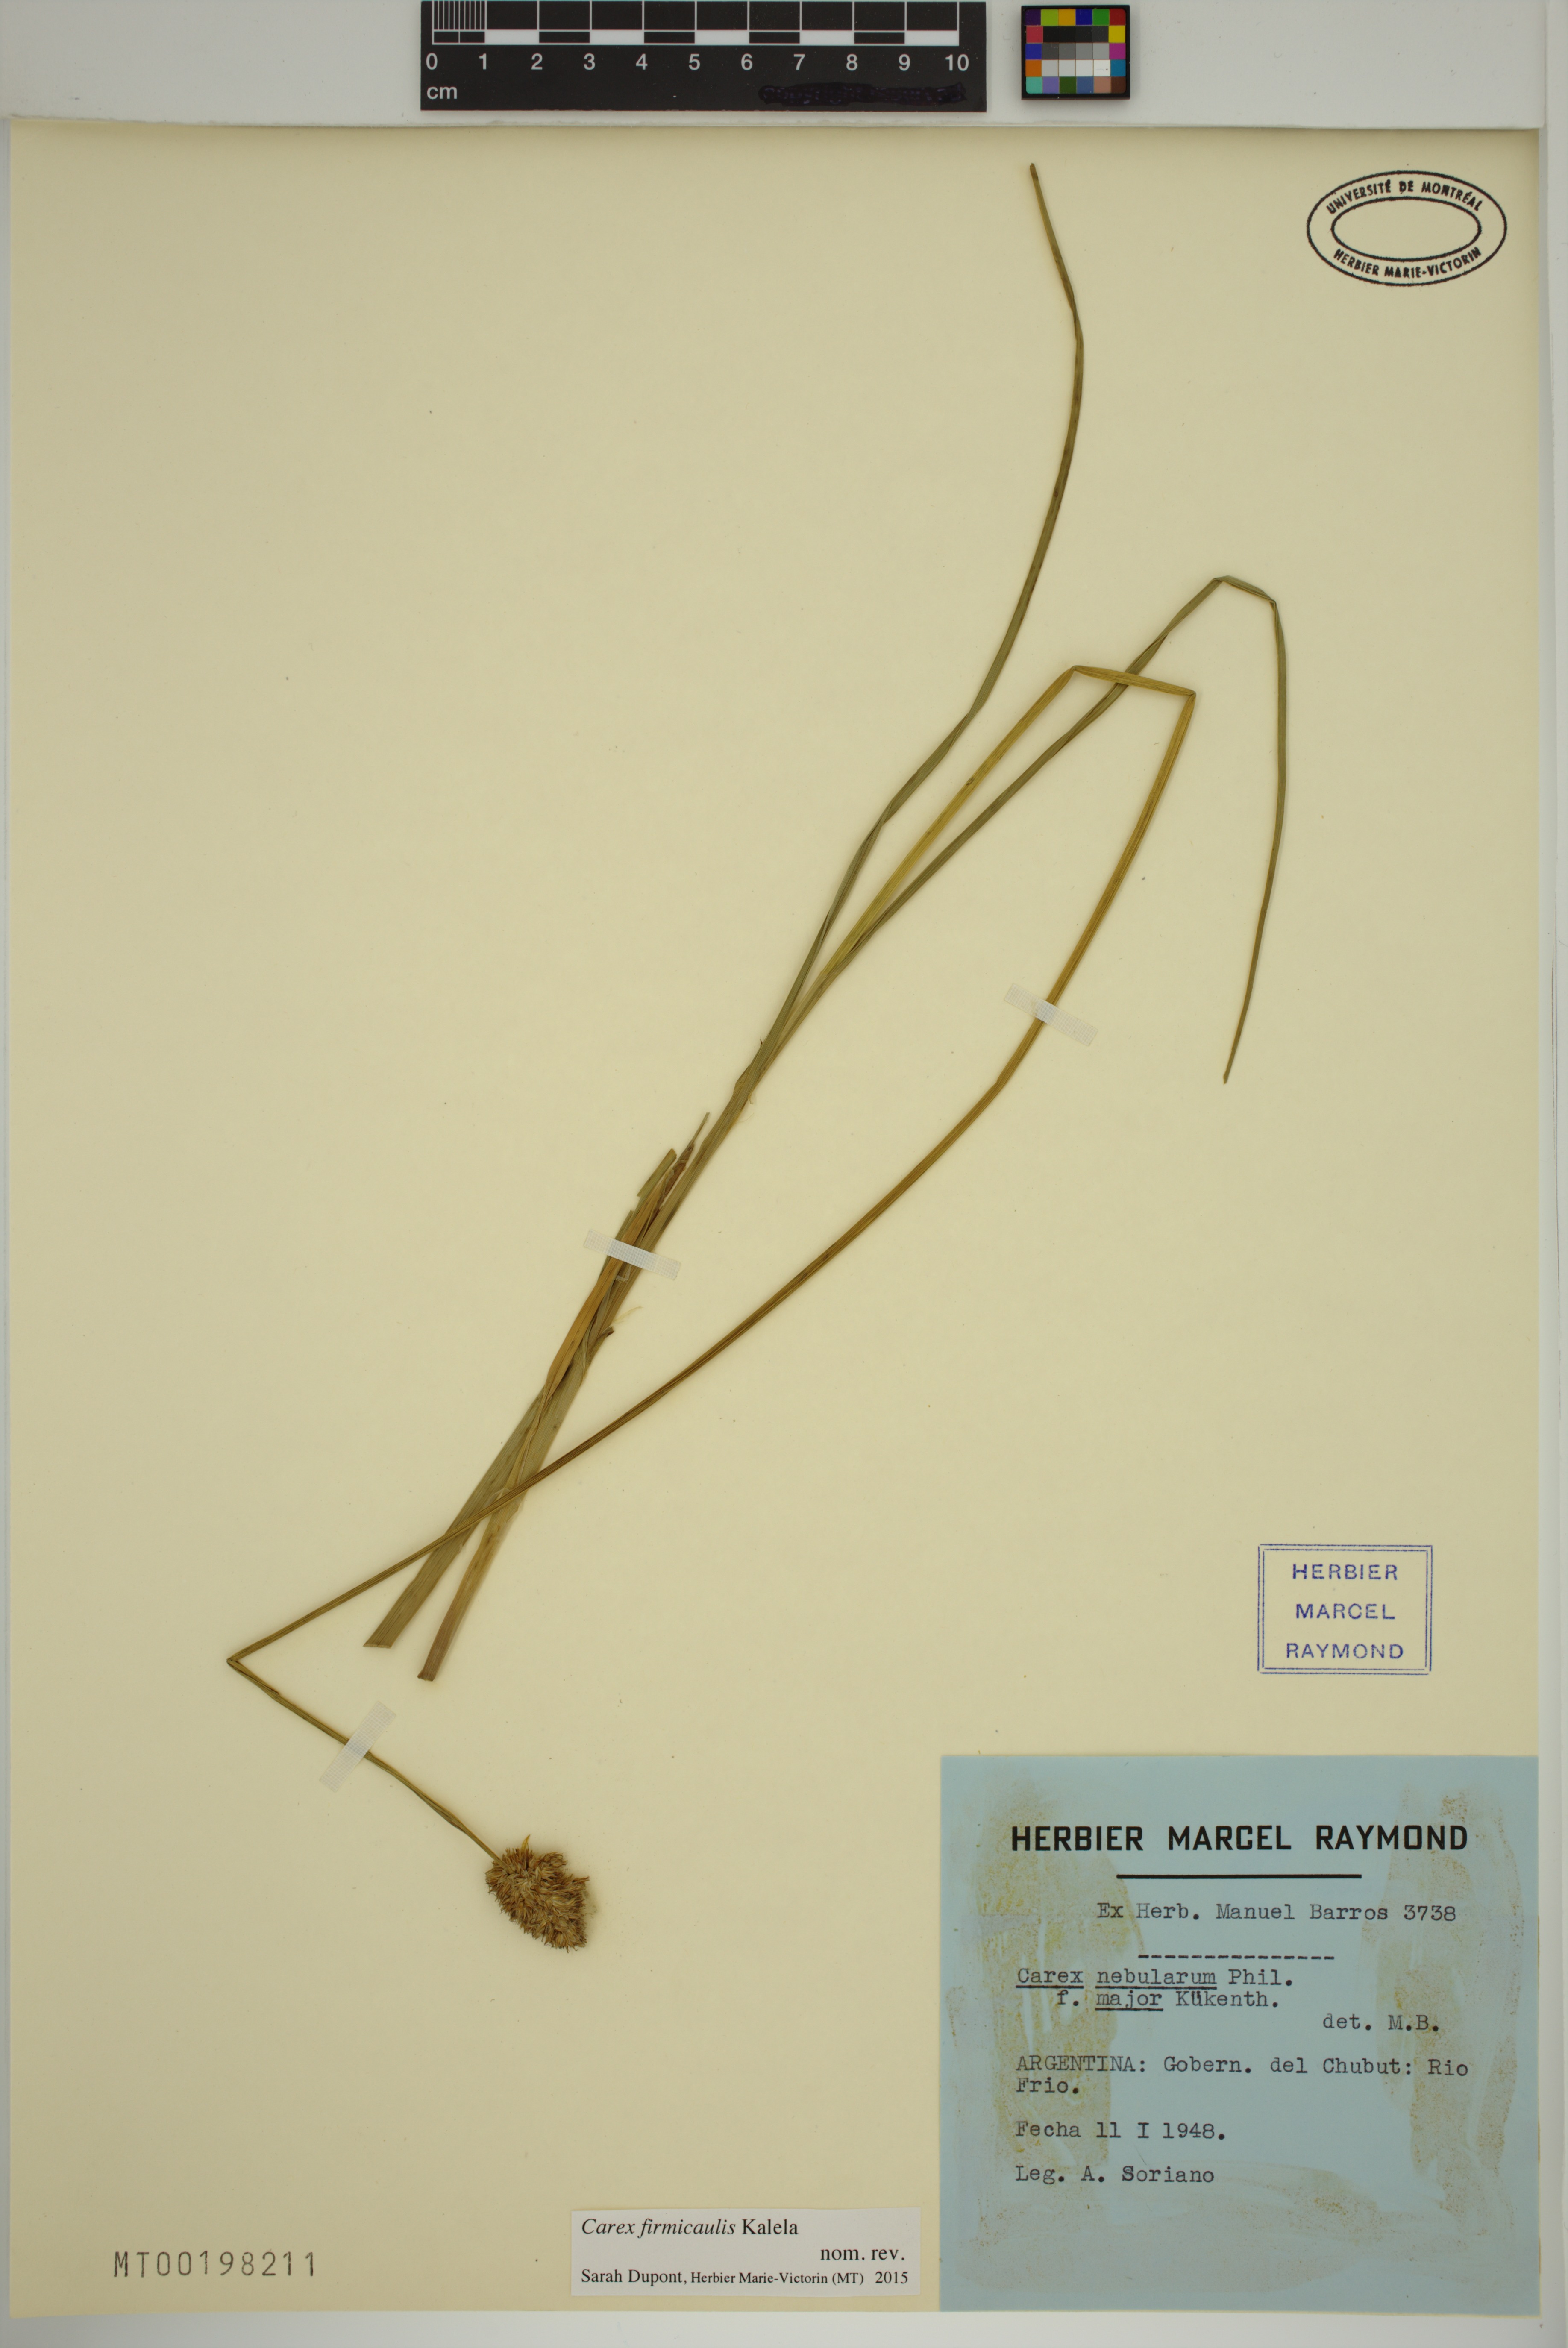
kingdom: Plantae
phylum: Tracheophyta
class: Liliopsida
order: Poales
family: Cyperaceae
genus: Carex
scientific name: Carex firmicaulis
